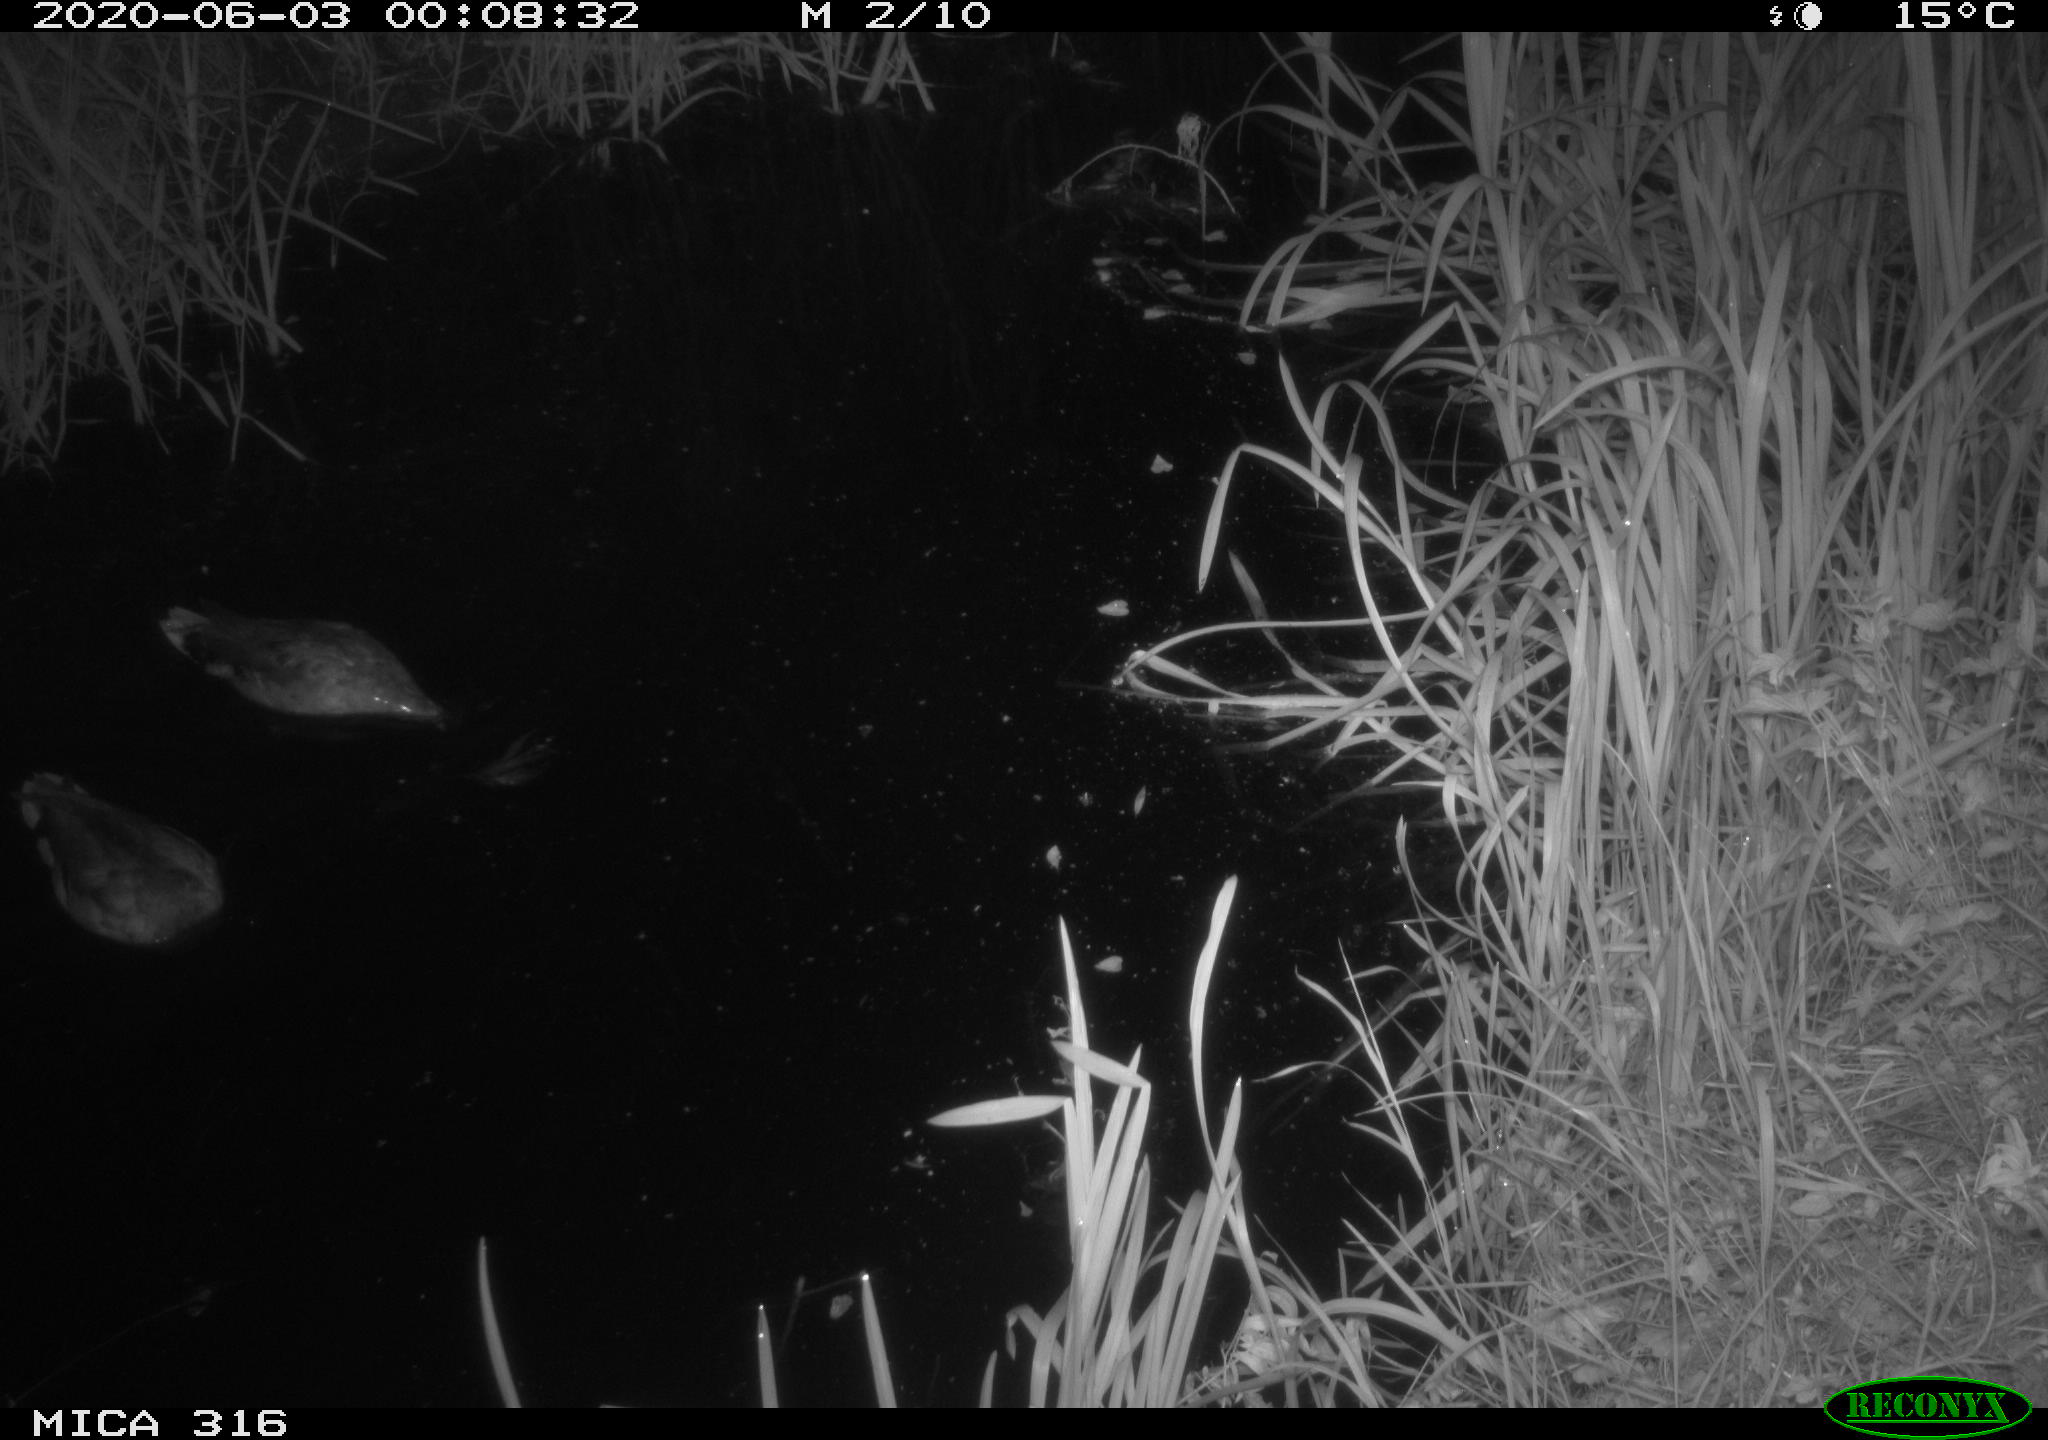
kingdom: Animalia
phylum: Chordata
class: Aves
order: Anseriformes
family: Anatidae
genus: Anas
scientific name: Anas platyrhynchos
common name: Mallard
